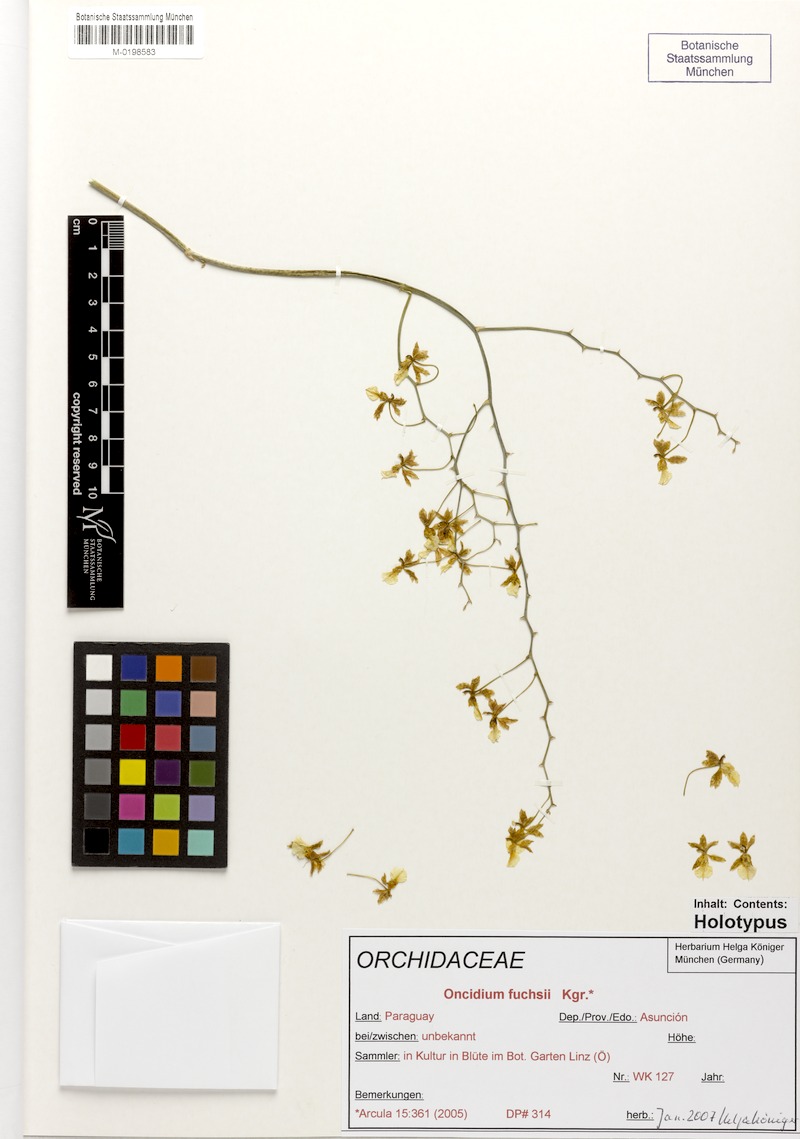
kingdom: Plantae
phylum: Tracheophyta
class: Liliopsida
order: Asparagales
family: Orchidaceae
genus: Oncidium
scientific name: Oncidium fuchsii
